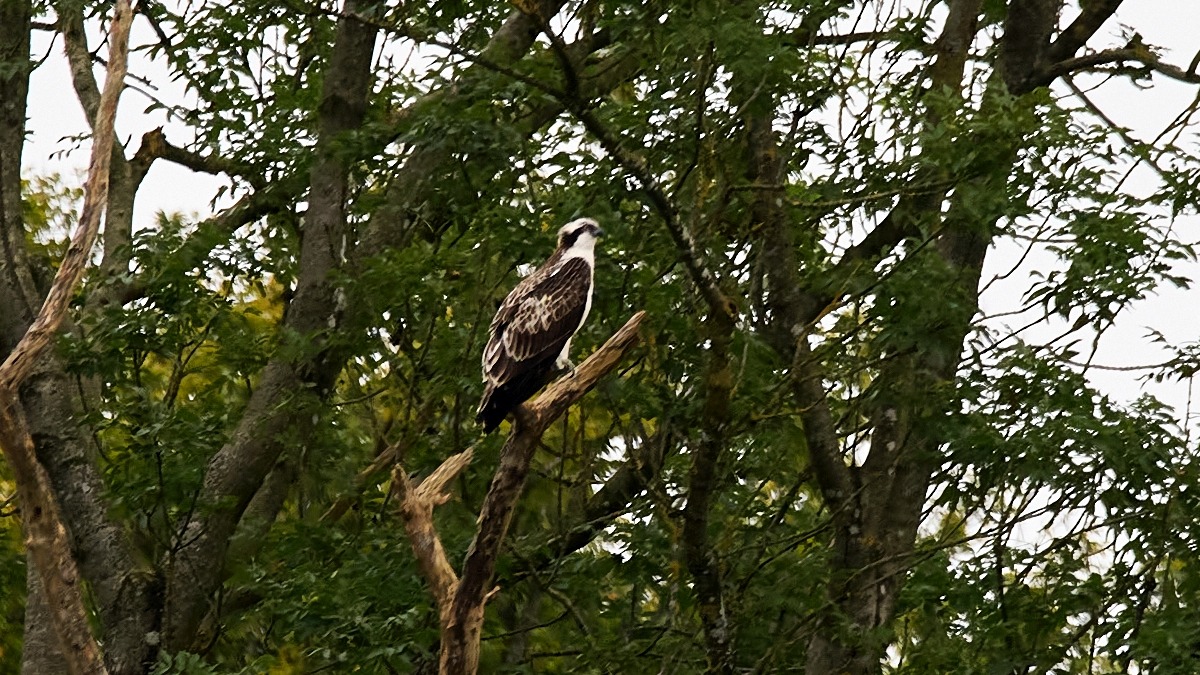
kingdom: Animalia
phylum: Chordata
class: Aves
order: Accipitriformes
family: Pandionidae
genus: Pandion
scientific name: Pandion haliaetus
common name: Fiskeørn
